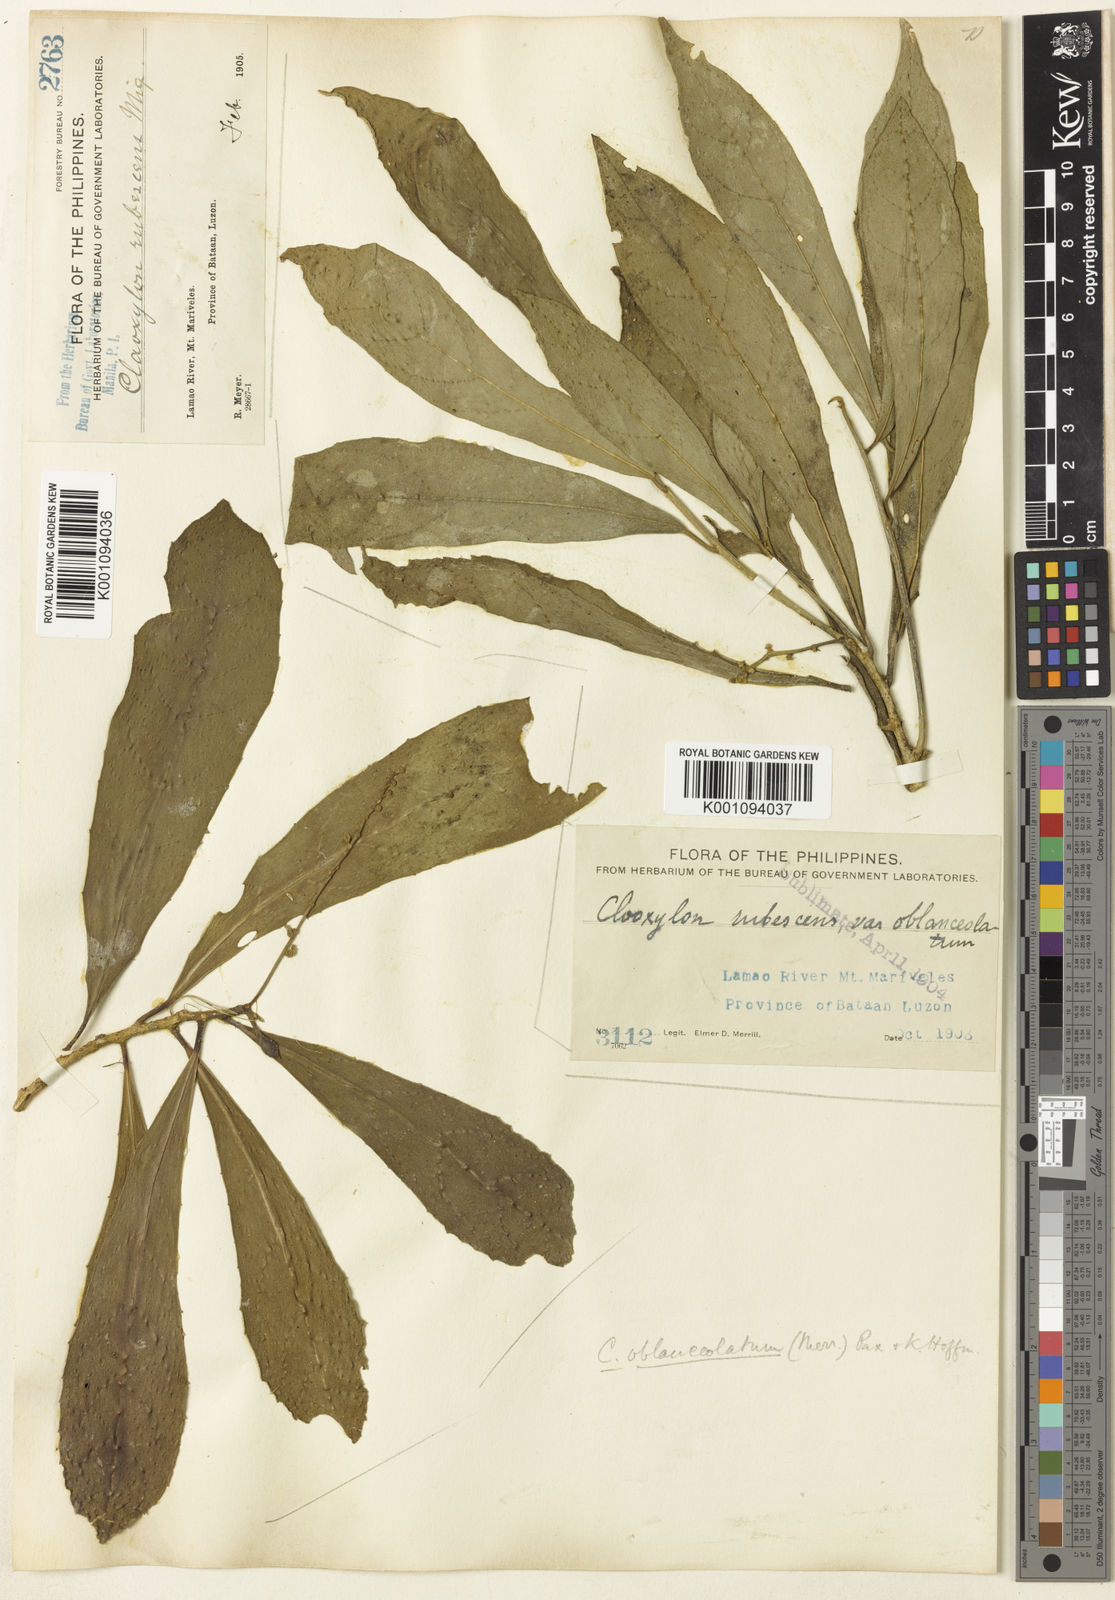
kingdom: Plantae
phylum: Tracheophyta
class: Magnoliopsida
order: Malpighiales
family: Euphorbiaceae
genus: Claoxylon
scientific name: Claoxylon oblanceolatum
